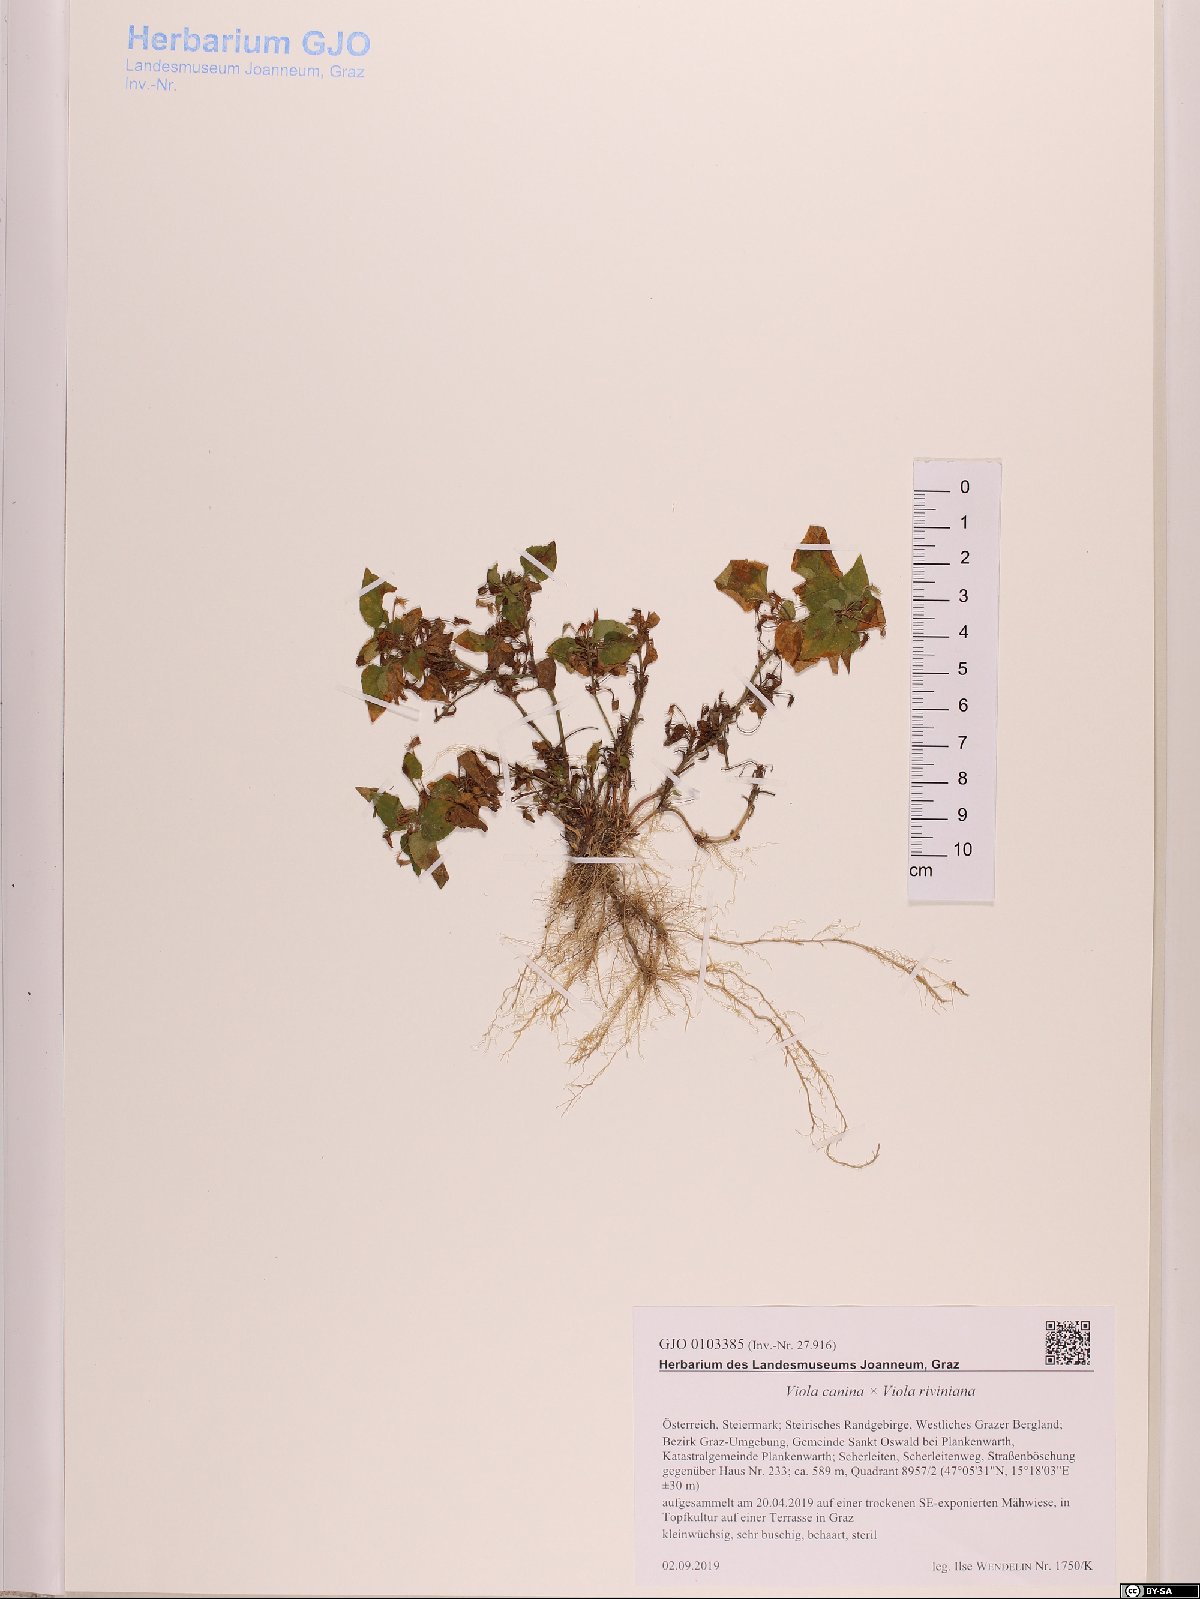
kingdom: Plantae
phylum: Tracheophyta
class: Magnoliopsida
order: Malpighiales
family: Violaceae
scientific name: Violaceae
